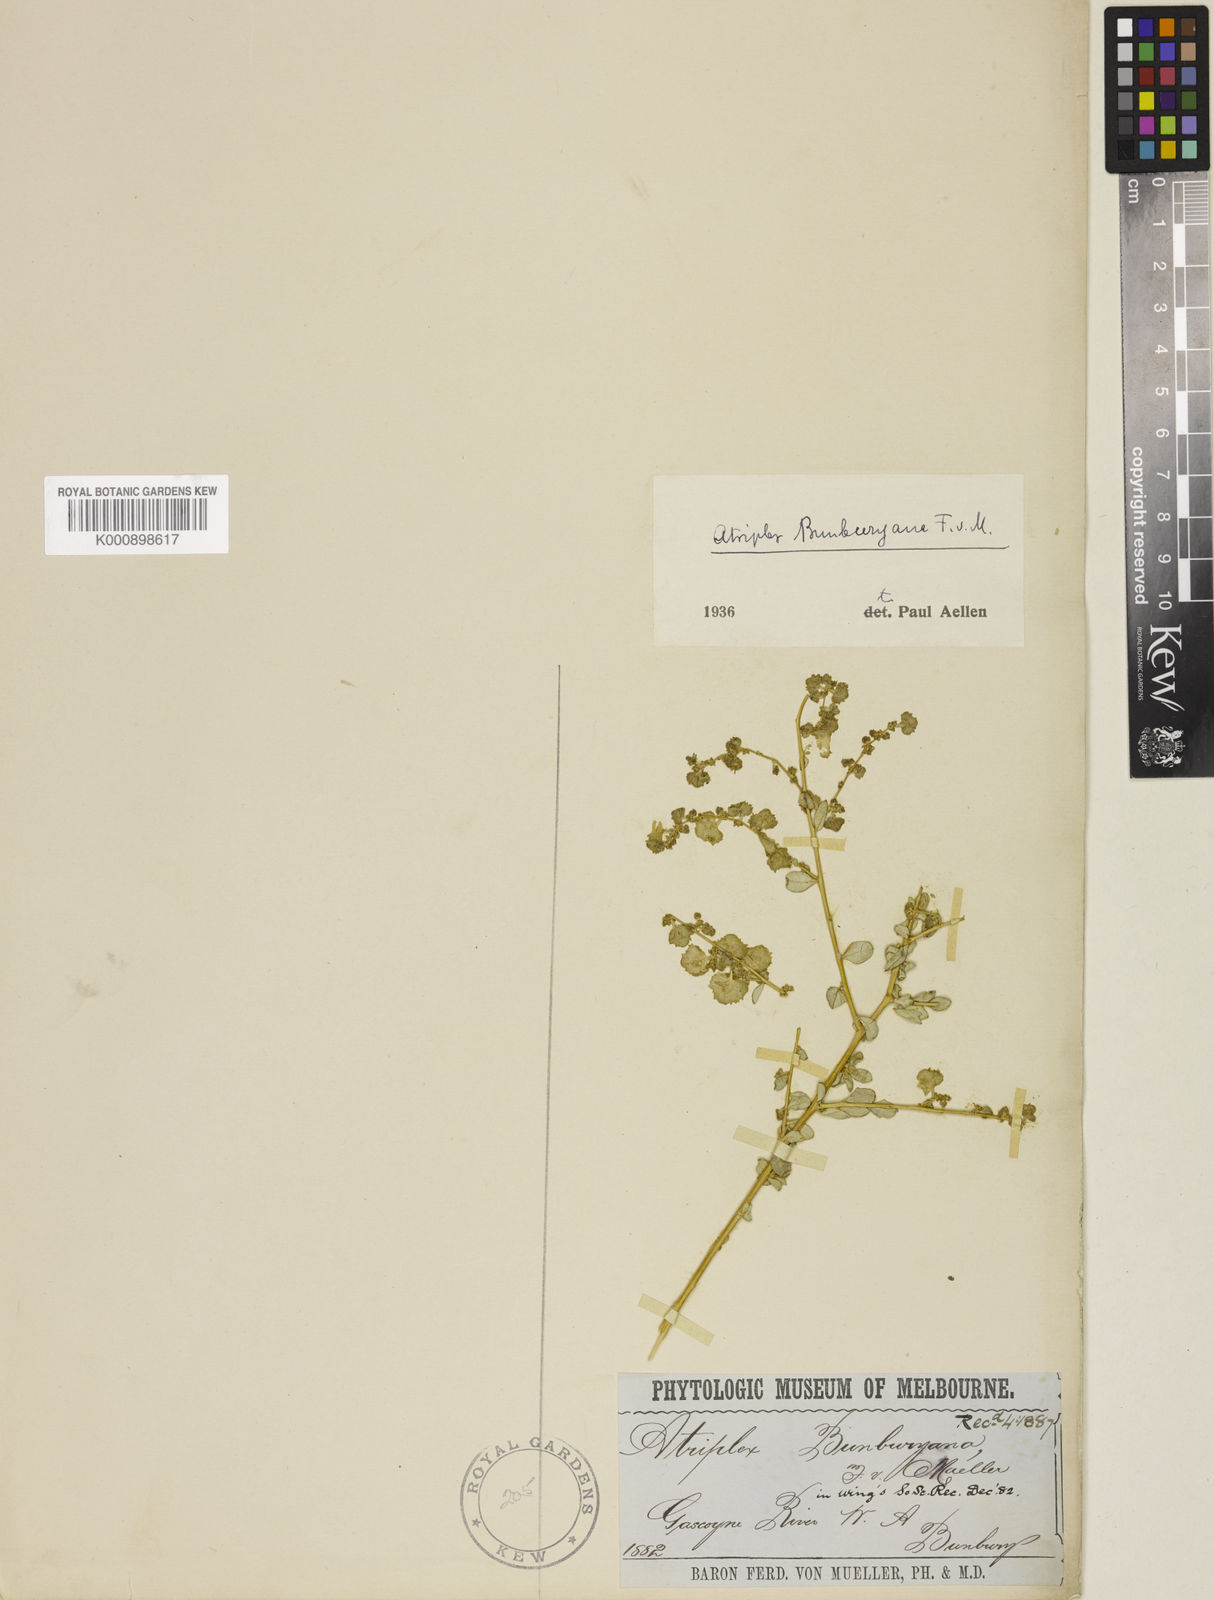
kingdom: Plantae
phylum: Tracheophyta
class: Magnoliopsida
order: Caryophyllales
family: Amaranthaceae
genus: Atriplex
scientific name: Atriplex bunburyana
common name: Silver saltbush
